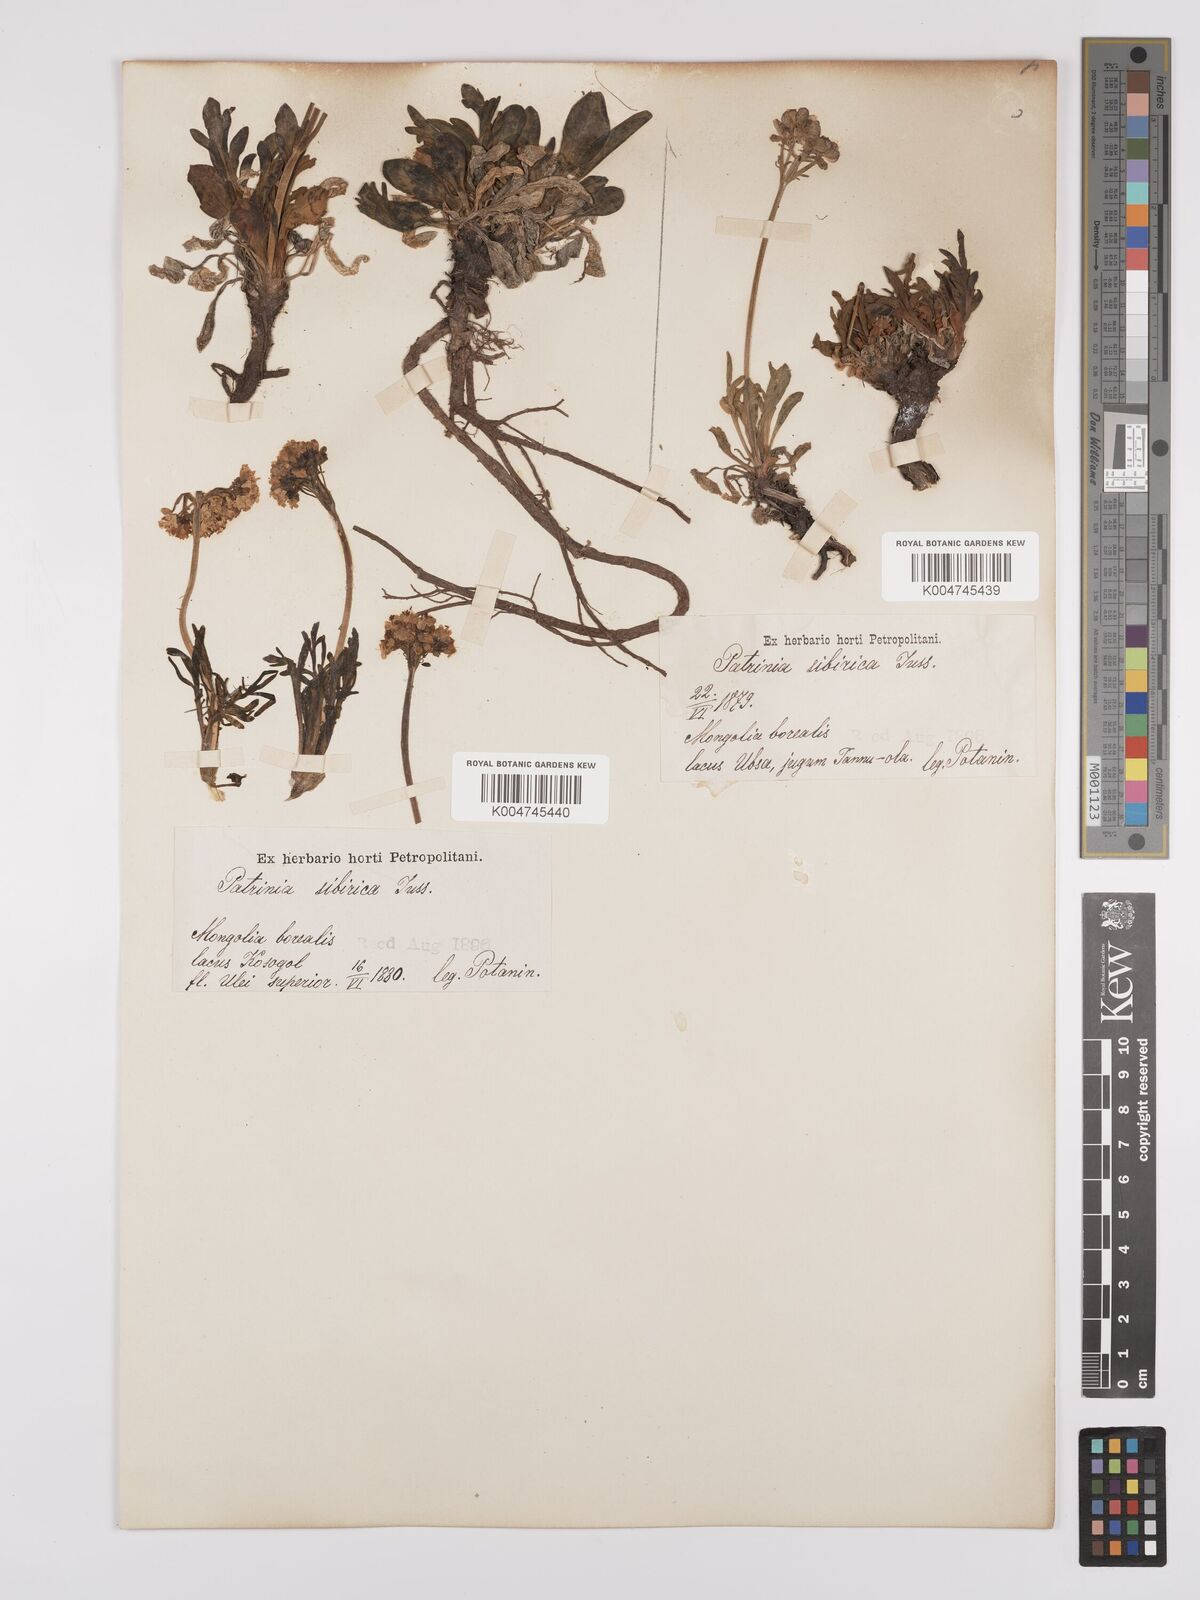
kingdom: Plantae
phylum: Tracheophyta
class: Magnoliopsida
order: Dipsacales
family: Caprifoliaceae
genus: Patrinia
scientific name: Patrinia sibirica
